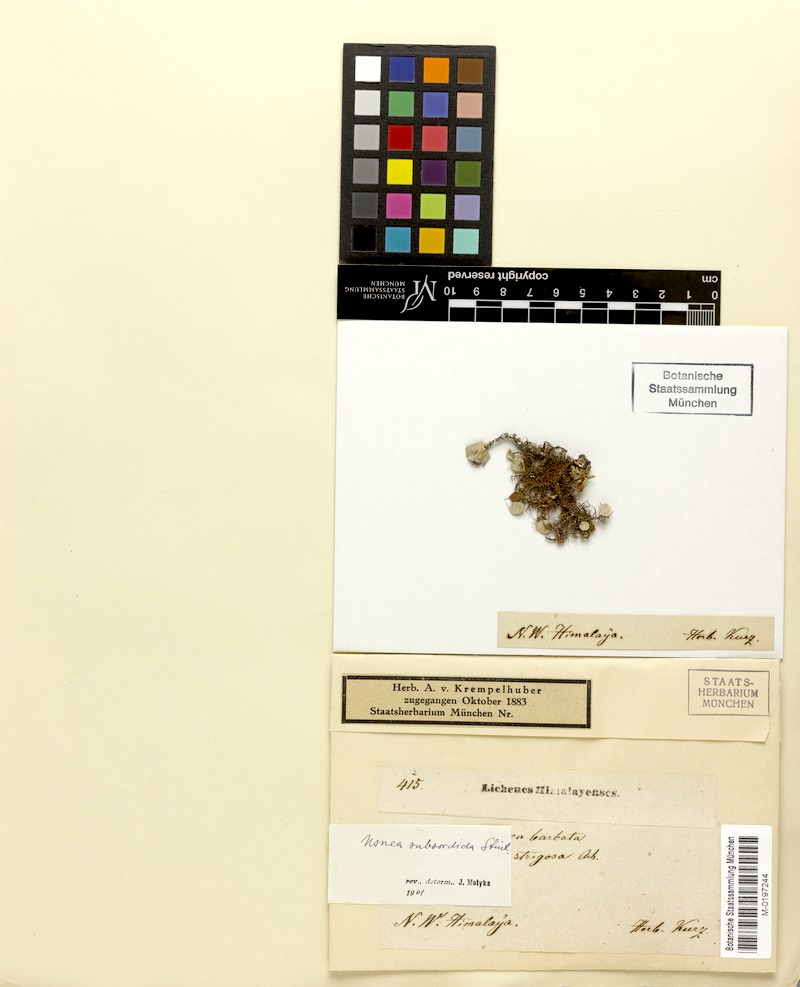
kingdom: Fungi
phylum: Ascomycota
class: Lecanoromycetes
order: Lecanorales
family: Parmeliaceae
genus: Usnea
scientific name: Usnea subsordida
